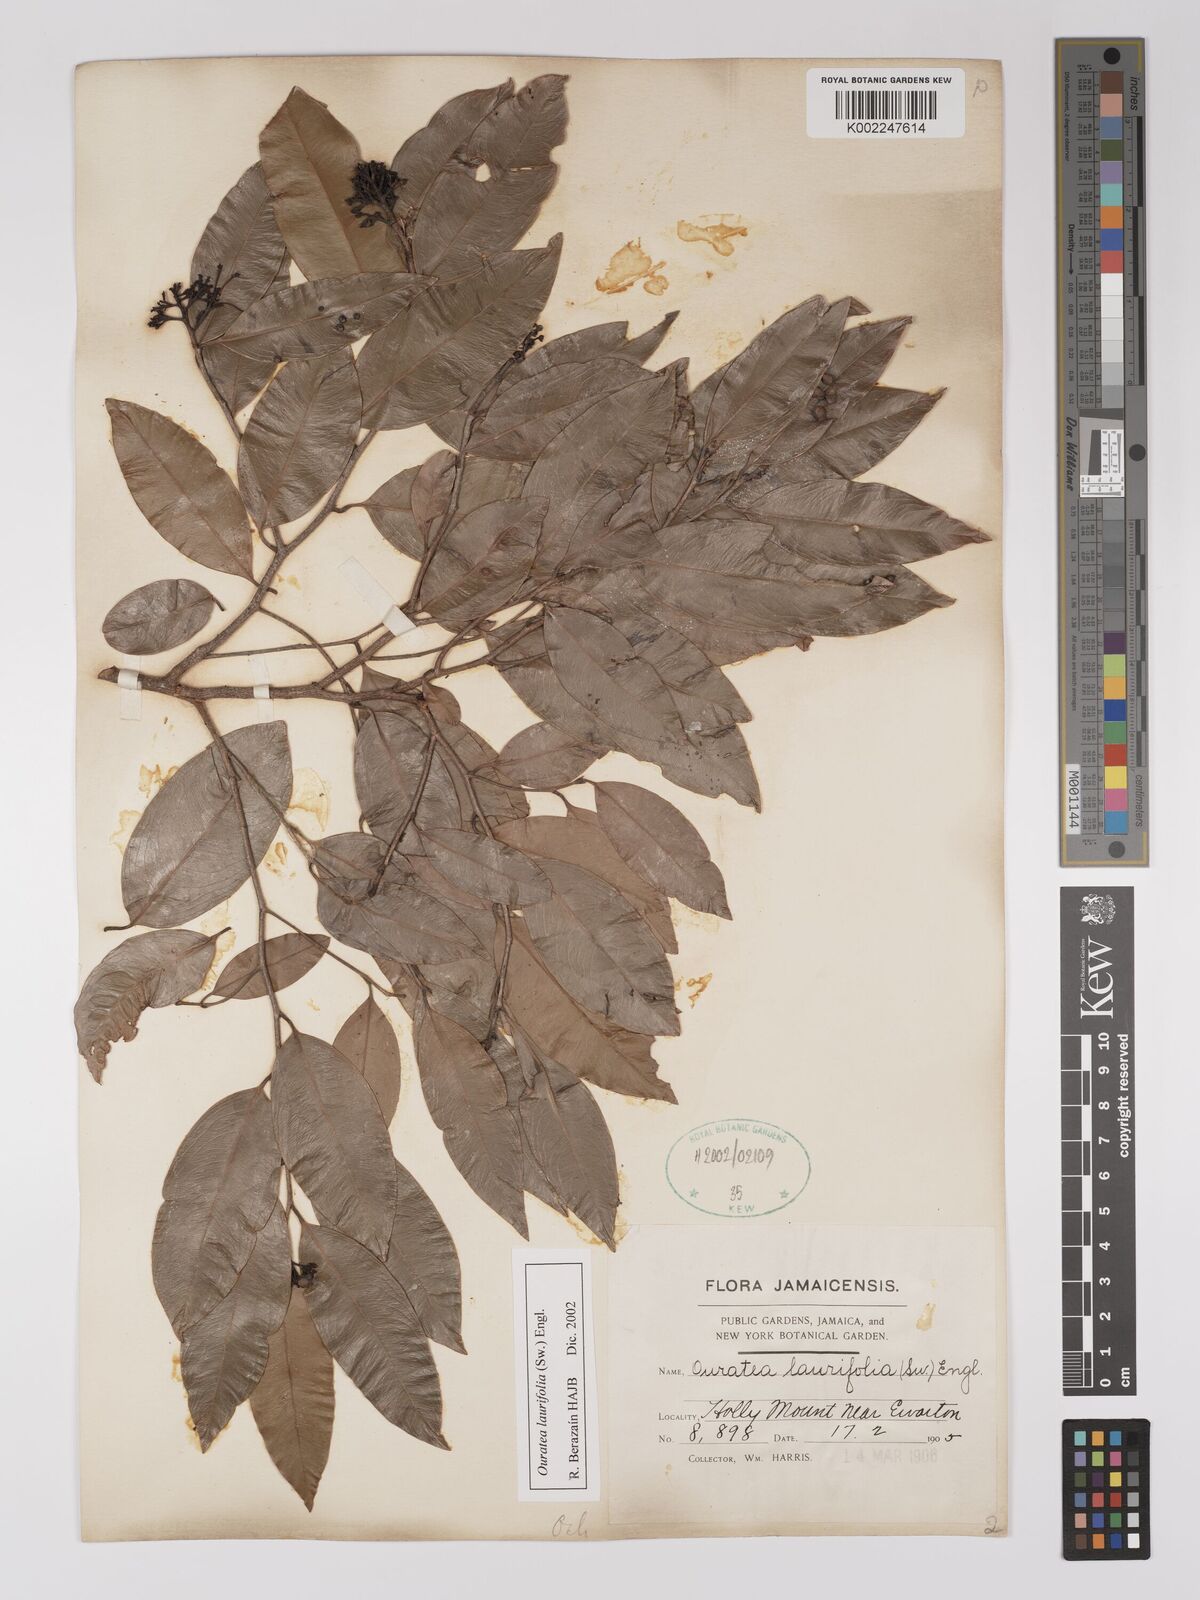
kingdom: Plantae
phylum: Tracheophyta
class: Magnoliopsida
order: Malpighiales
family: Ochnaceae
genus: Ouratea
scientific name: Ouratea laurifolia
